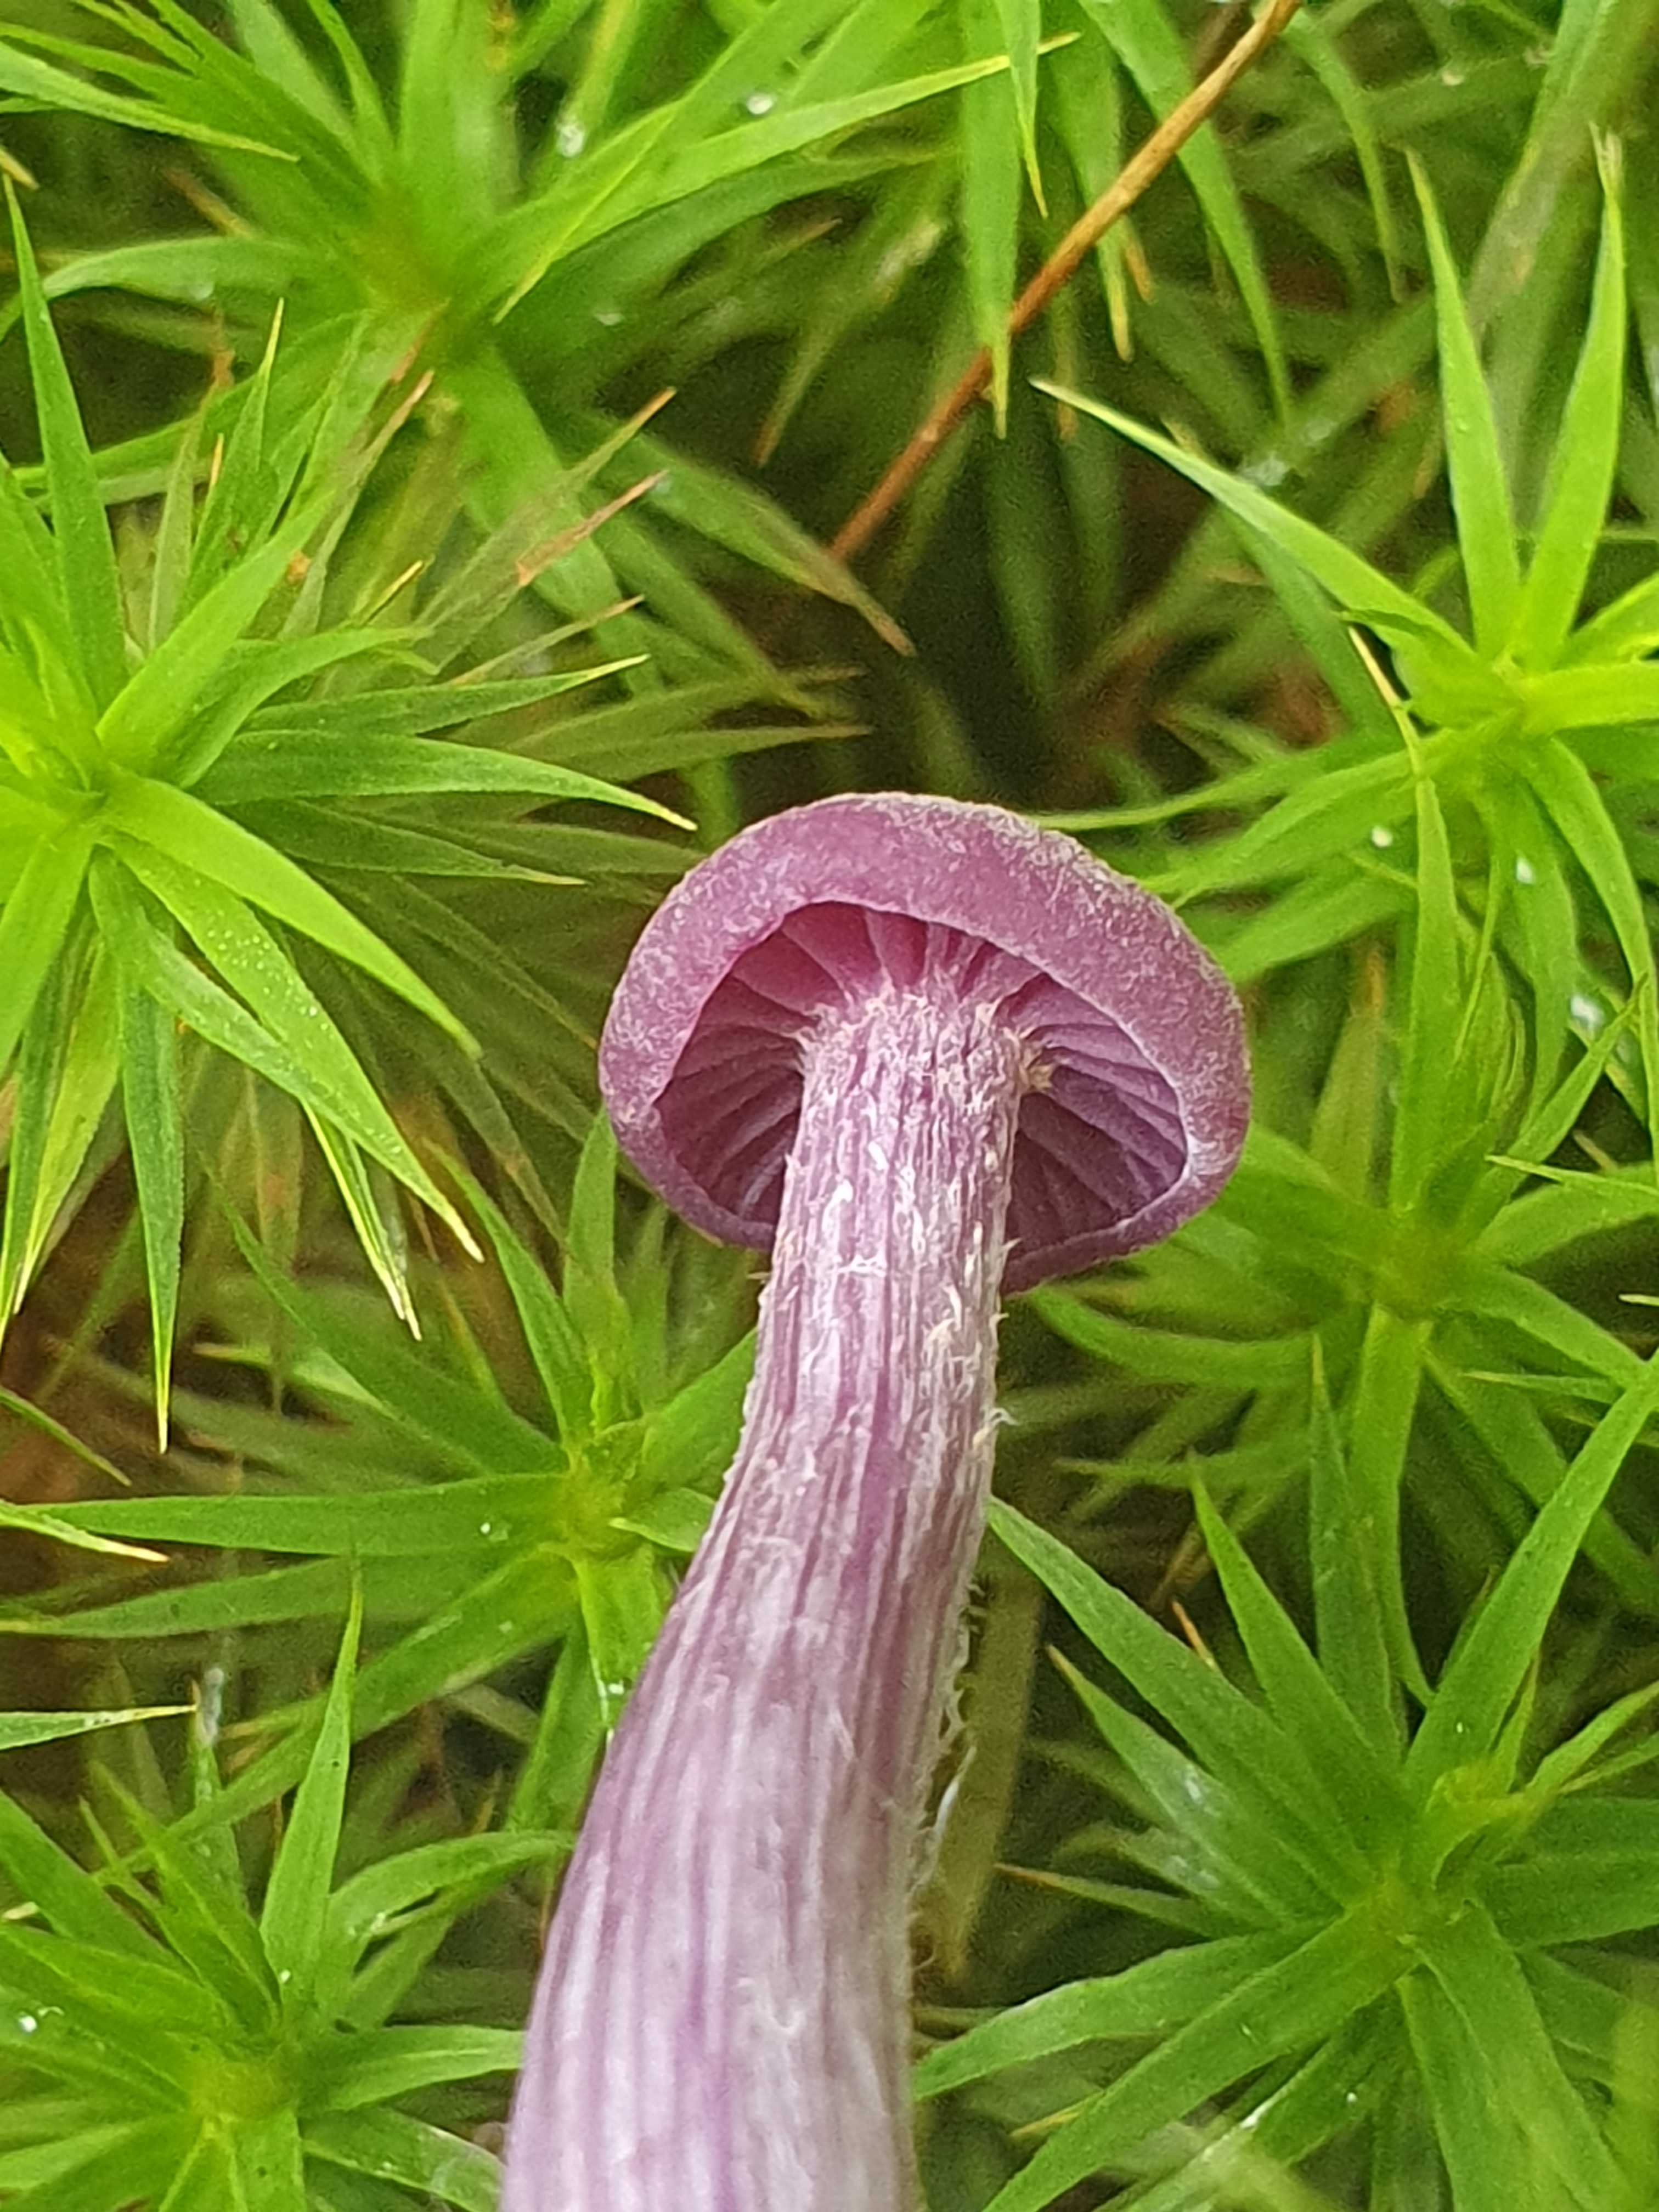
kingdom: Fungi
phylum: Basidiomycota
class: Agaricomycetes
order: Agaricales
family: Hydnangiaceae
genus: Laccaria
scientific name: Laccaria amethystina
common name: violet ametysthat
